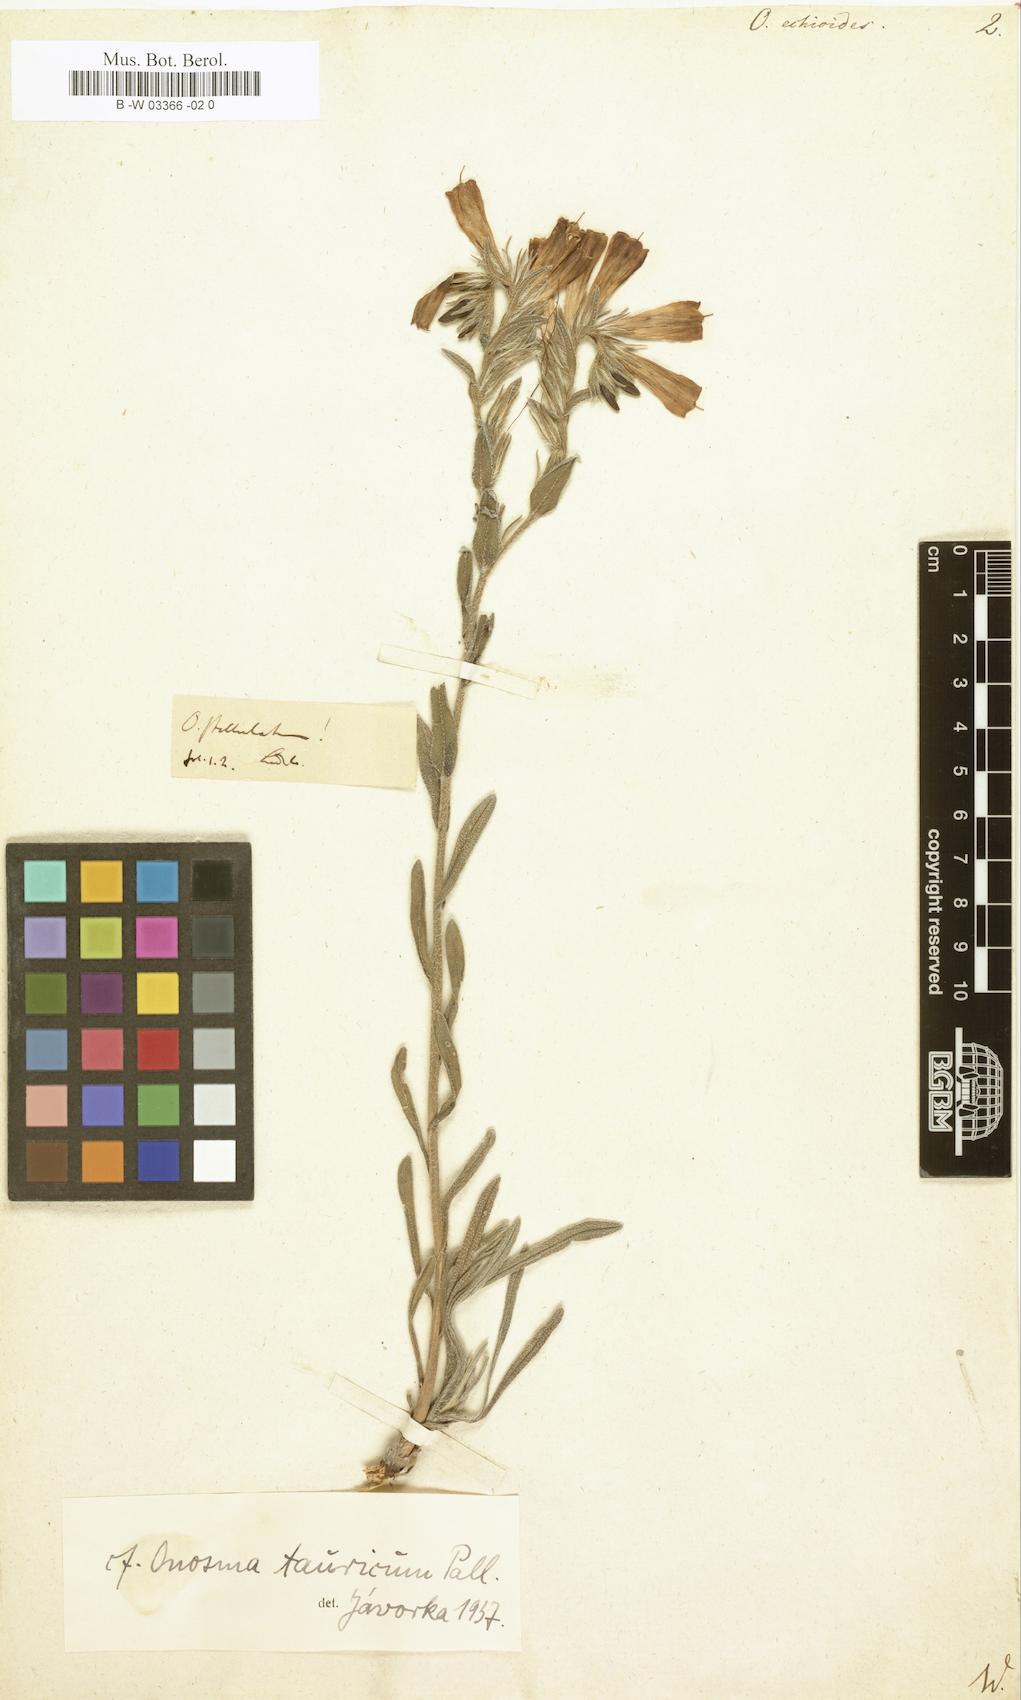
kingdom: Plantae
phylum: Tracheophyta
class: Magnoliopsida
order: Boraginales
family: Boraginaceae
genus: Onosma
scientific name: Onosma echioides
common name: Goldendrop
